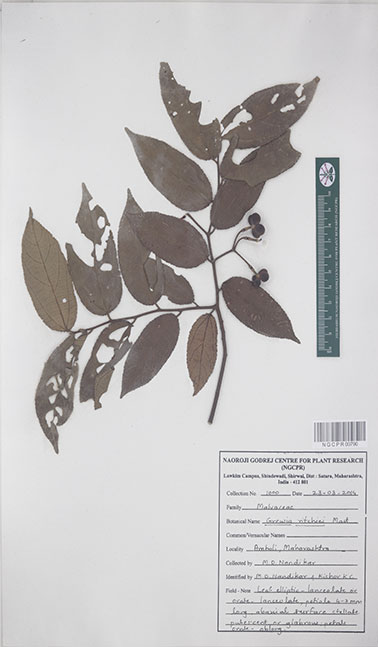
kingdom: Plantae
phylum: Tracheophyta
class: Magnoliopsida
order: Malvales
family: Malvaceae
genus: Grewia
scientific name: Grewia ritchiei
